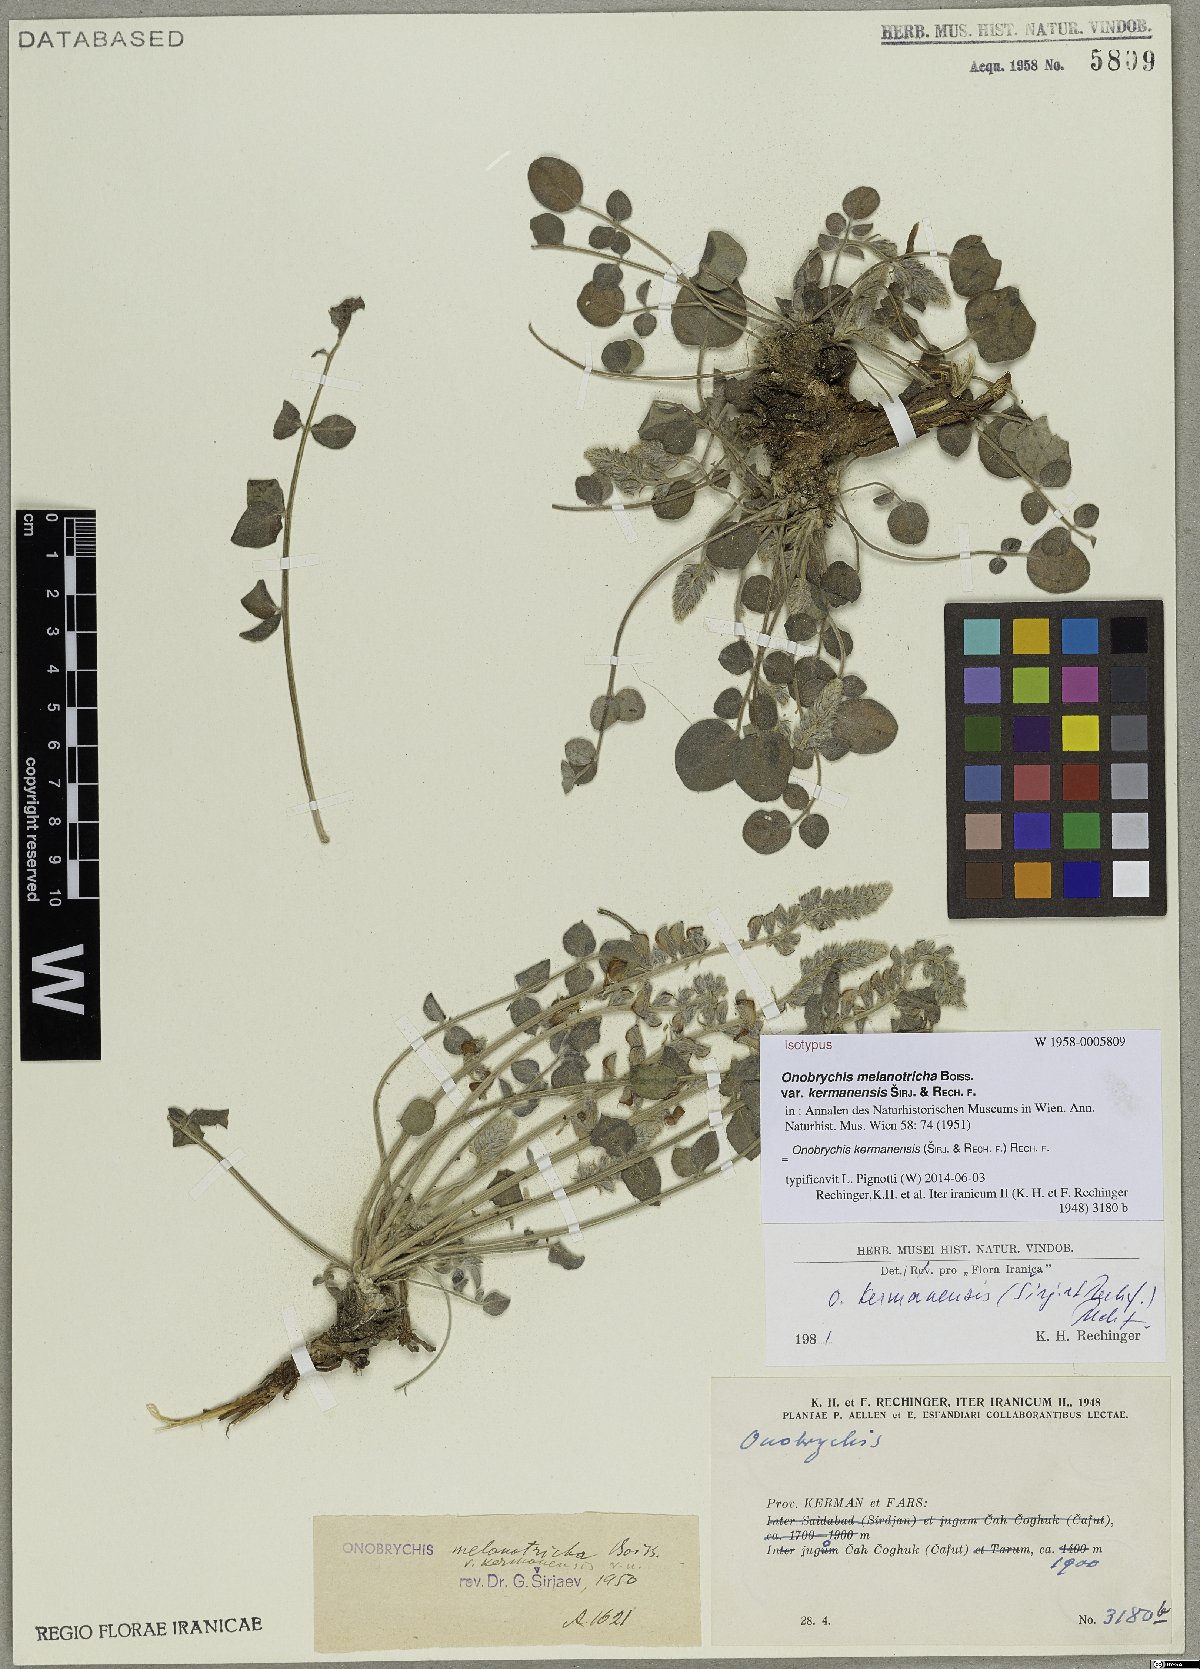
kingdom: Plantae
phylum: Tracheophyta
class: Magnoliopsida
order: Fabales
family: Fabaceae
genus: Onobrychis
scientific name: Onobrychis kermanensis
